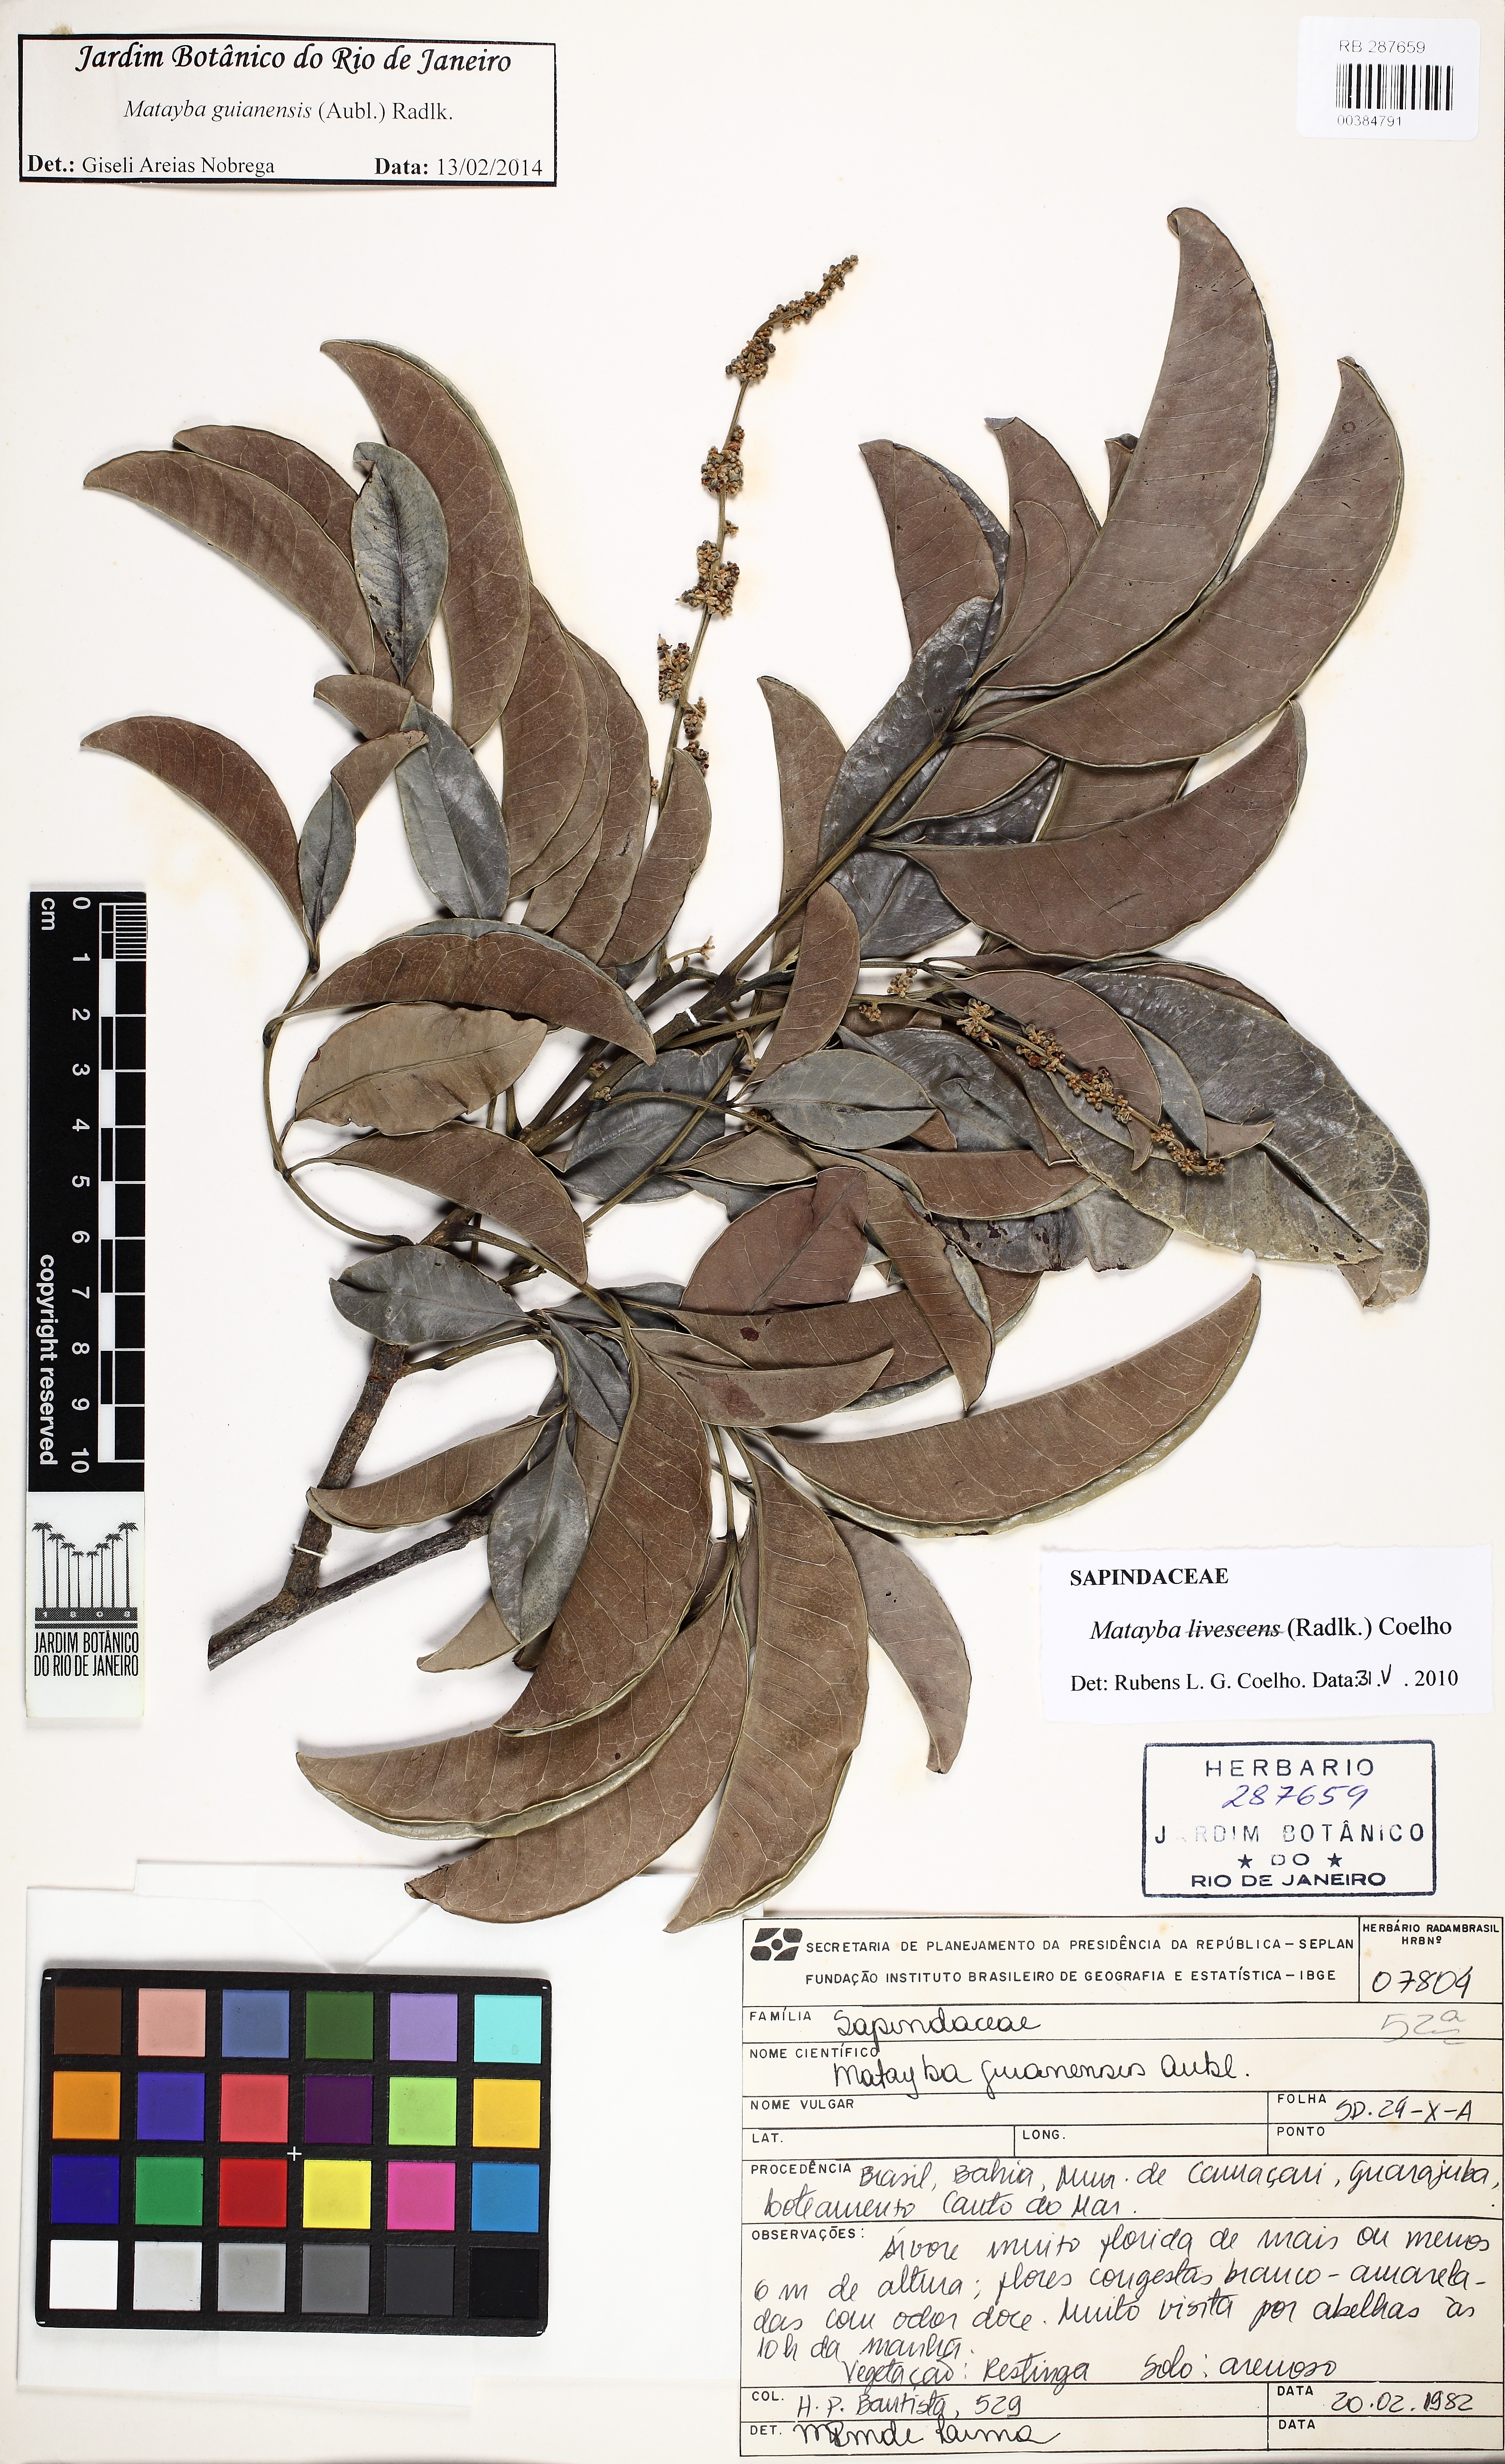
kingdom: Plantae
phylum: Tracheophyta
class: Magnoliopsida
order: Sapindales
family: Sapindaceae
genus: Matayba
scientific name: Matayba guianensis
